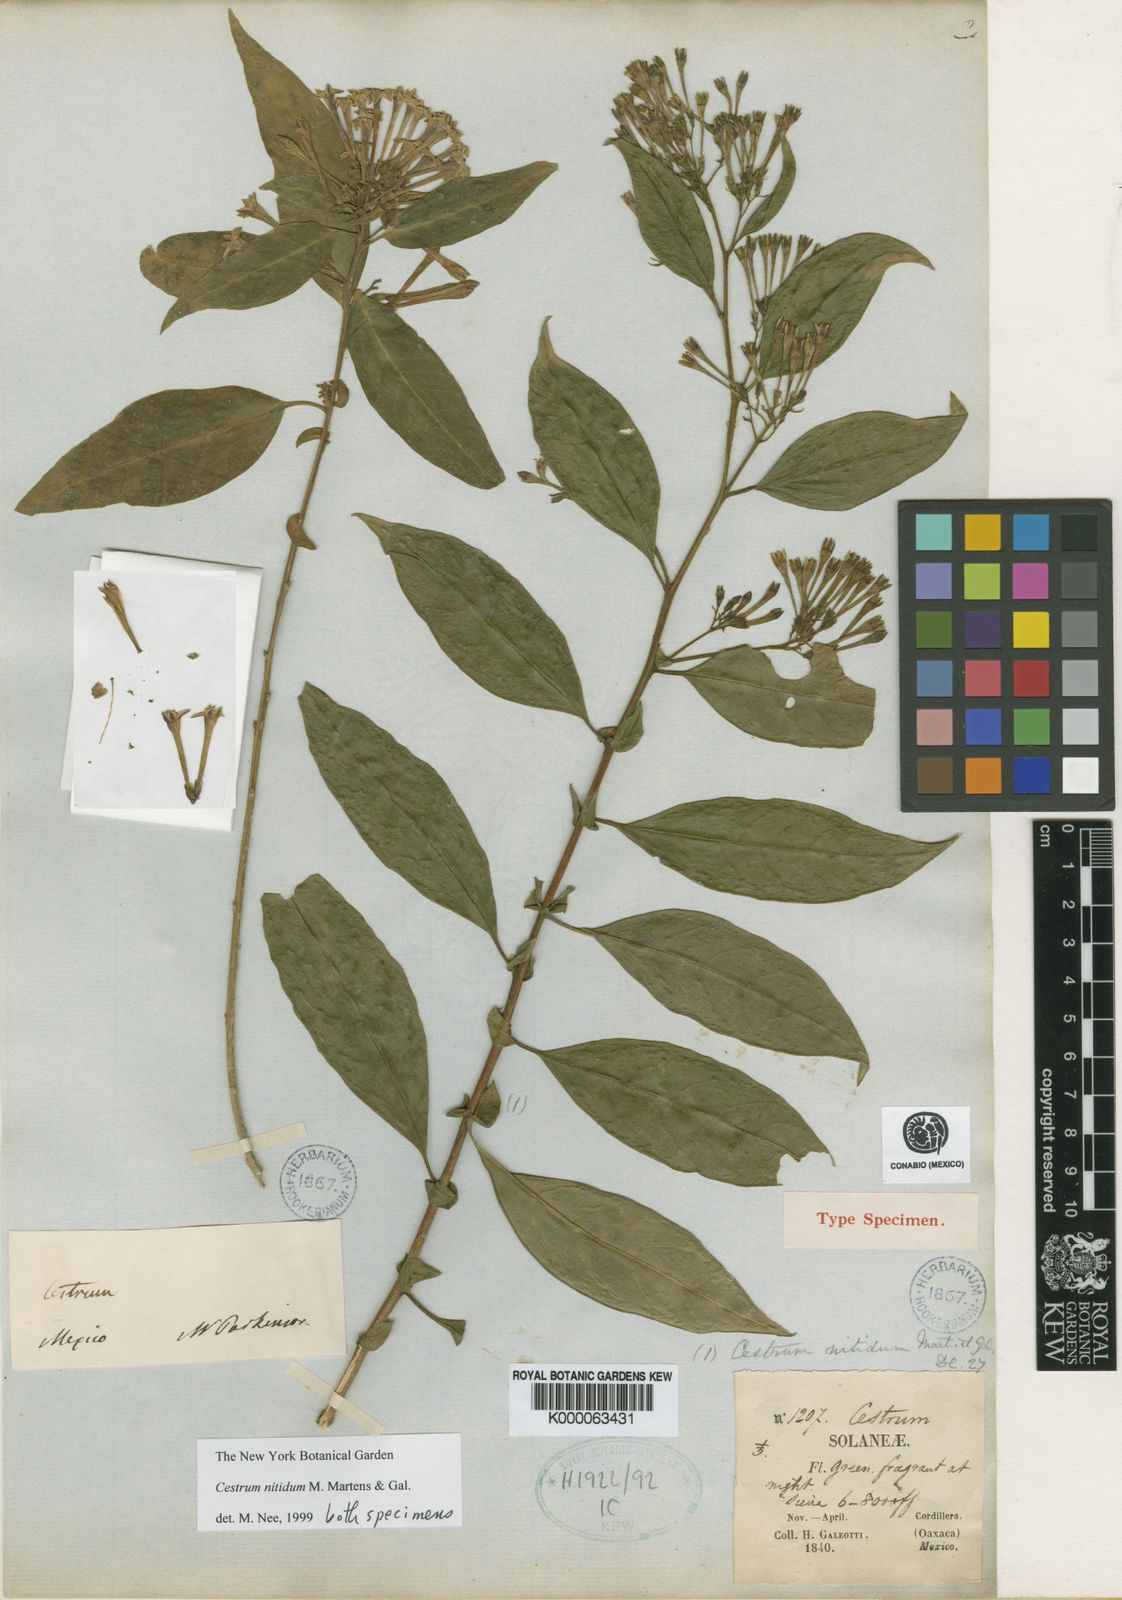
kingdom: Plantae
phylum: Tracheophyta
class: Magnoliopsida
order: Solanales
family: Solanaceae
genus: Cestrum
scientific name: Cestrum nitidum
